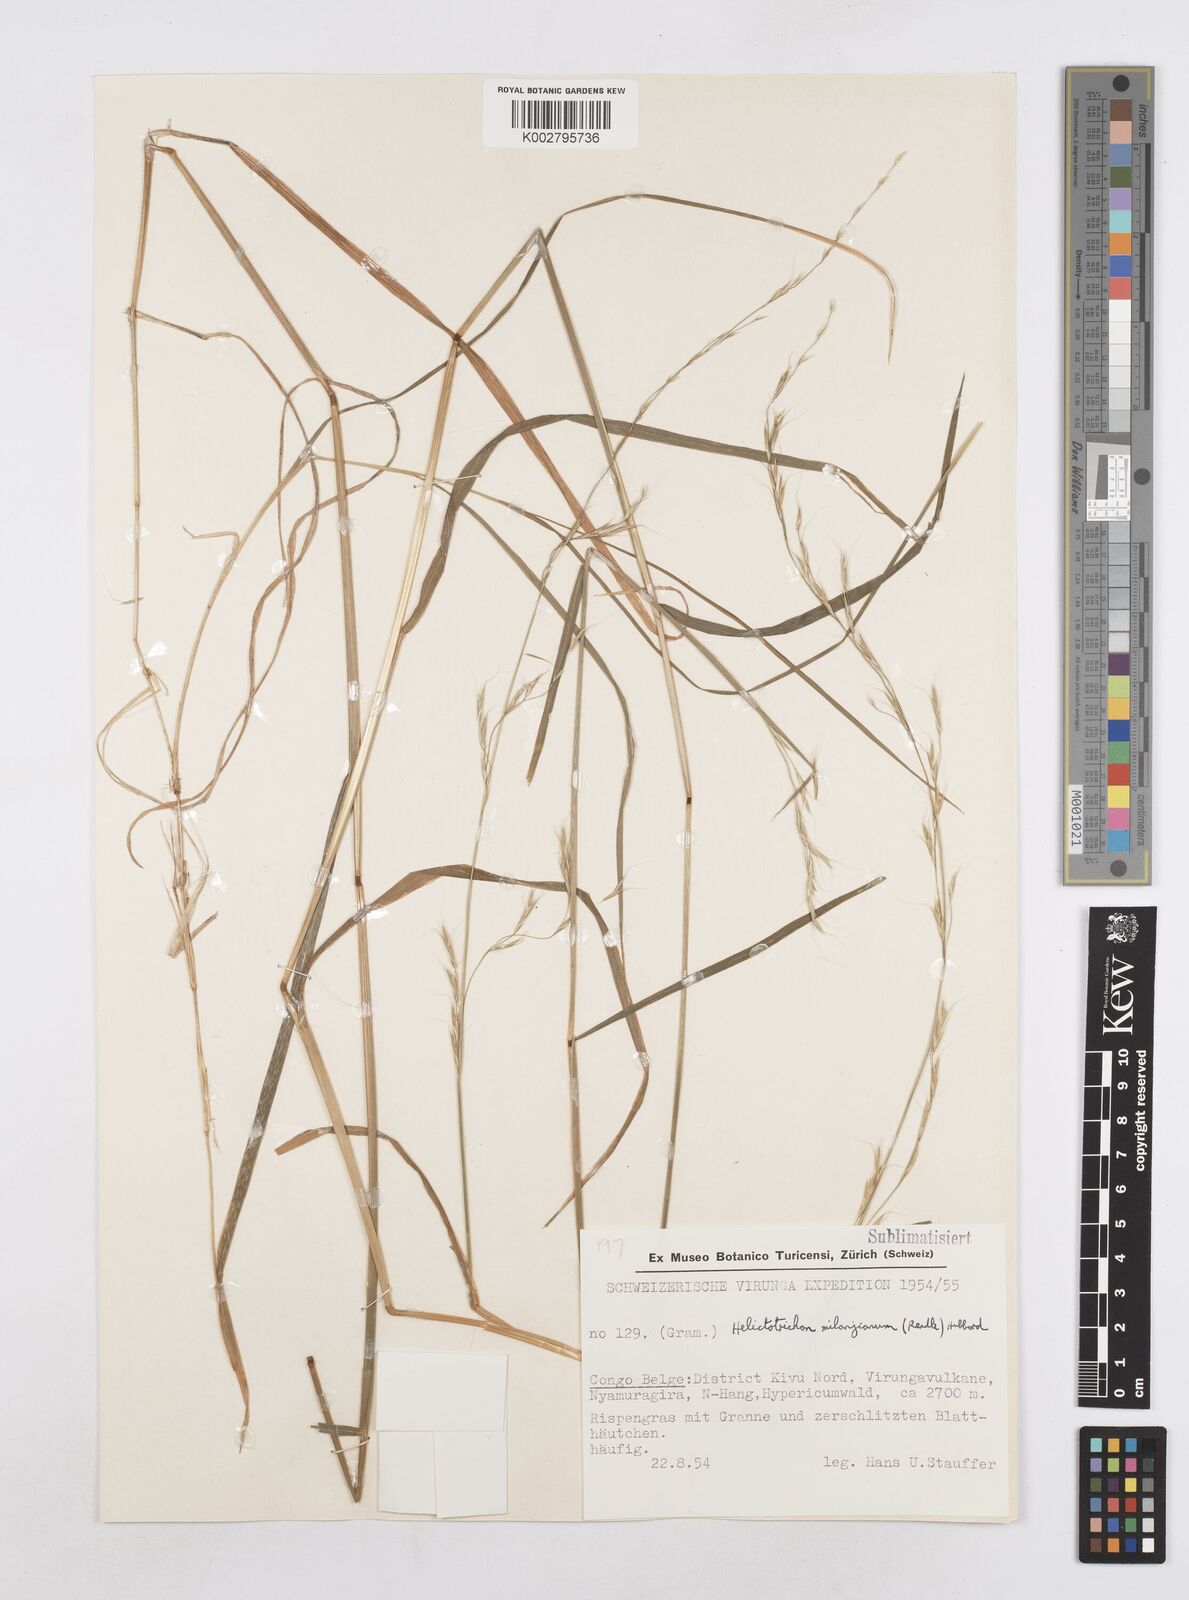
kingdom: Plantae
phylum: Tracheophyta
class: Liliopsida
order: Poales
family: Poaceae
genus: Trisetopsis
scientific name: Trisetopsis milanjiana
